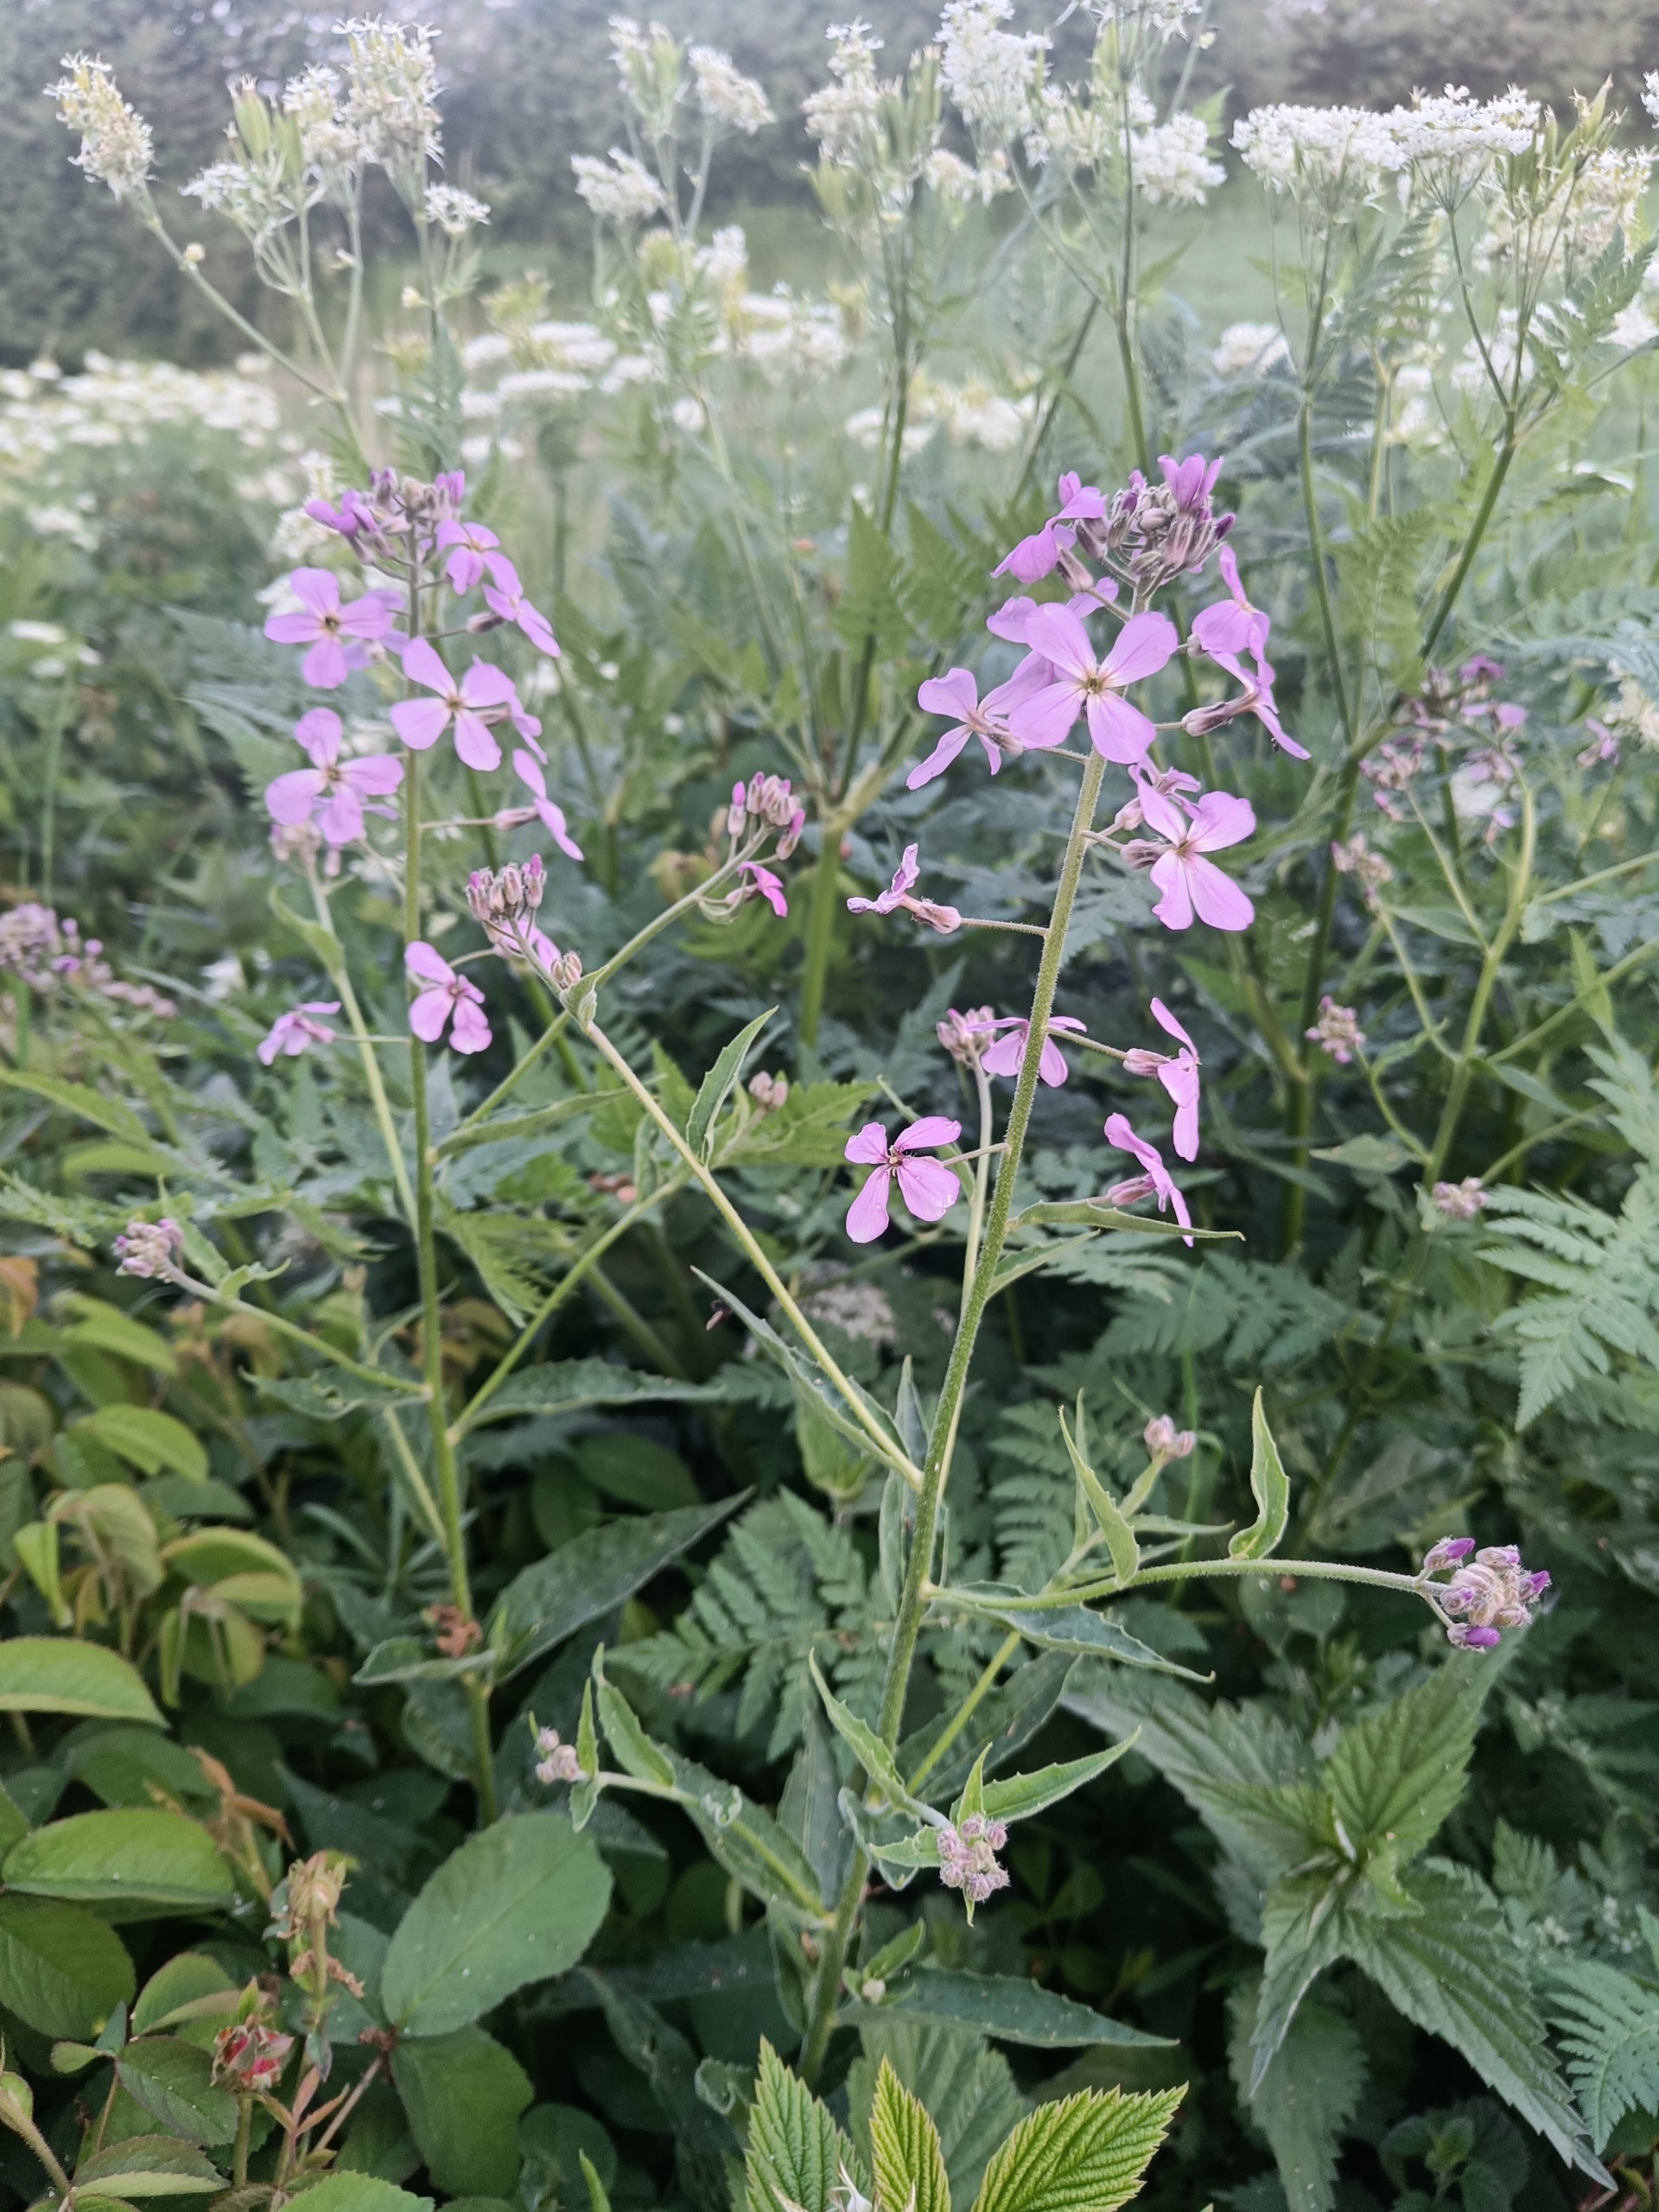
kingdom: Plantae
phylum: Tracheophyta
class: Magnoliopsida
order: Brassicales
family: Brassicaceae
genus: Hesperis
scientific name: Hesperis matronalis
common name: Aftenstjerne
